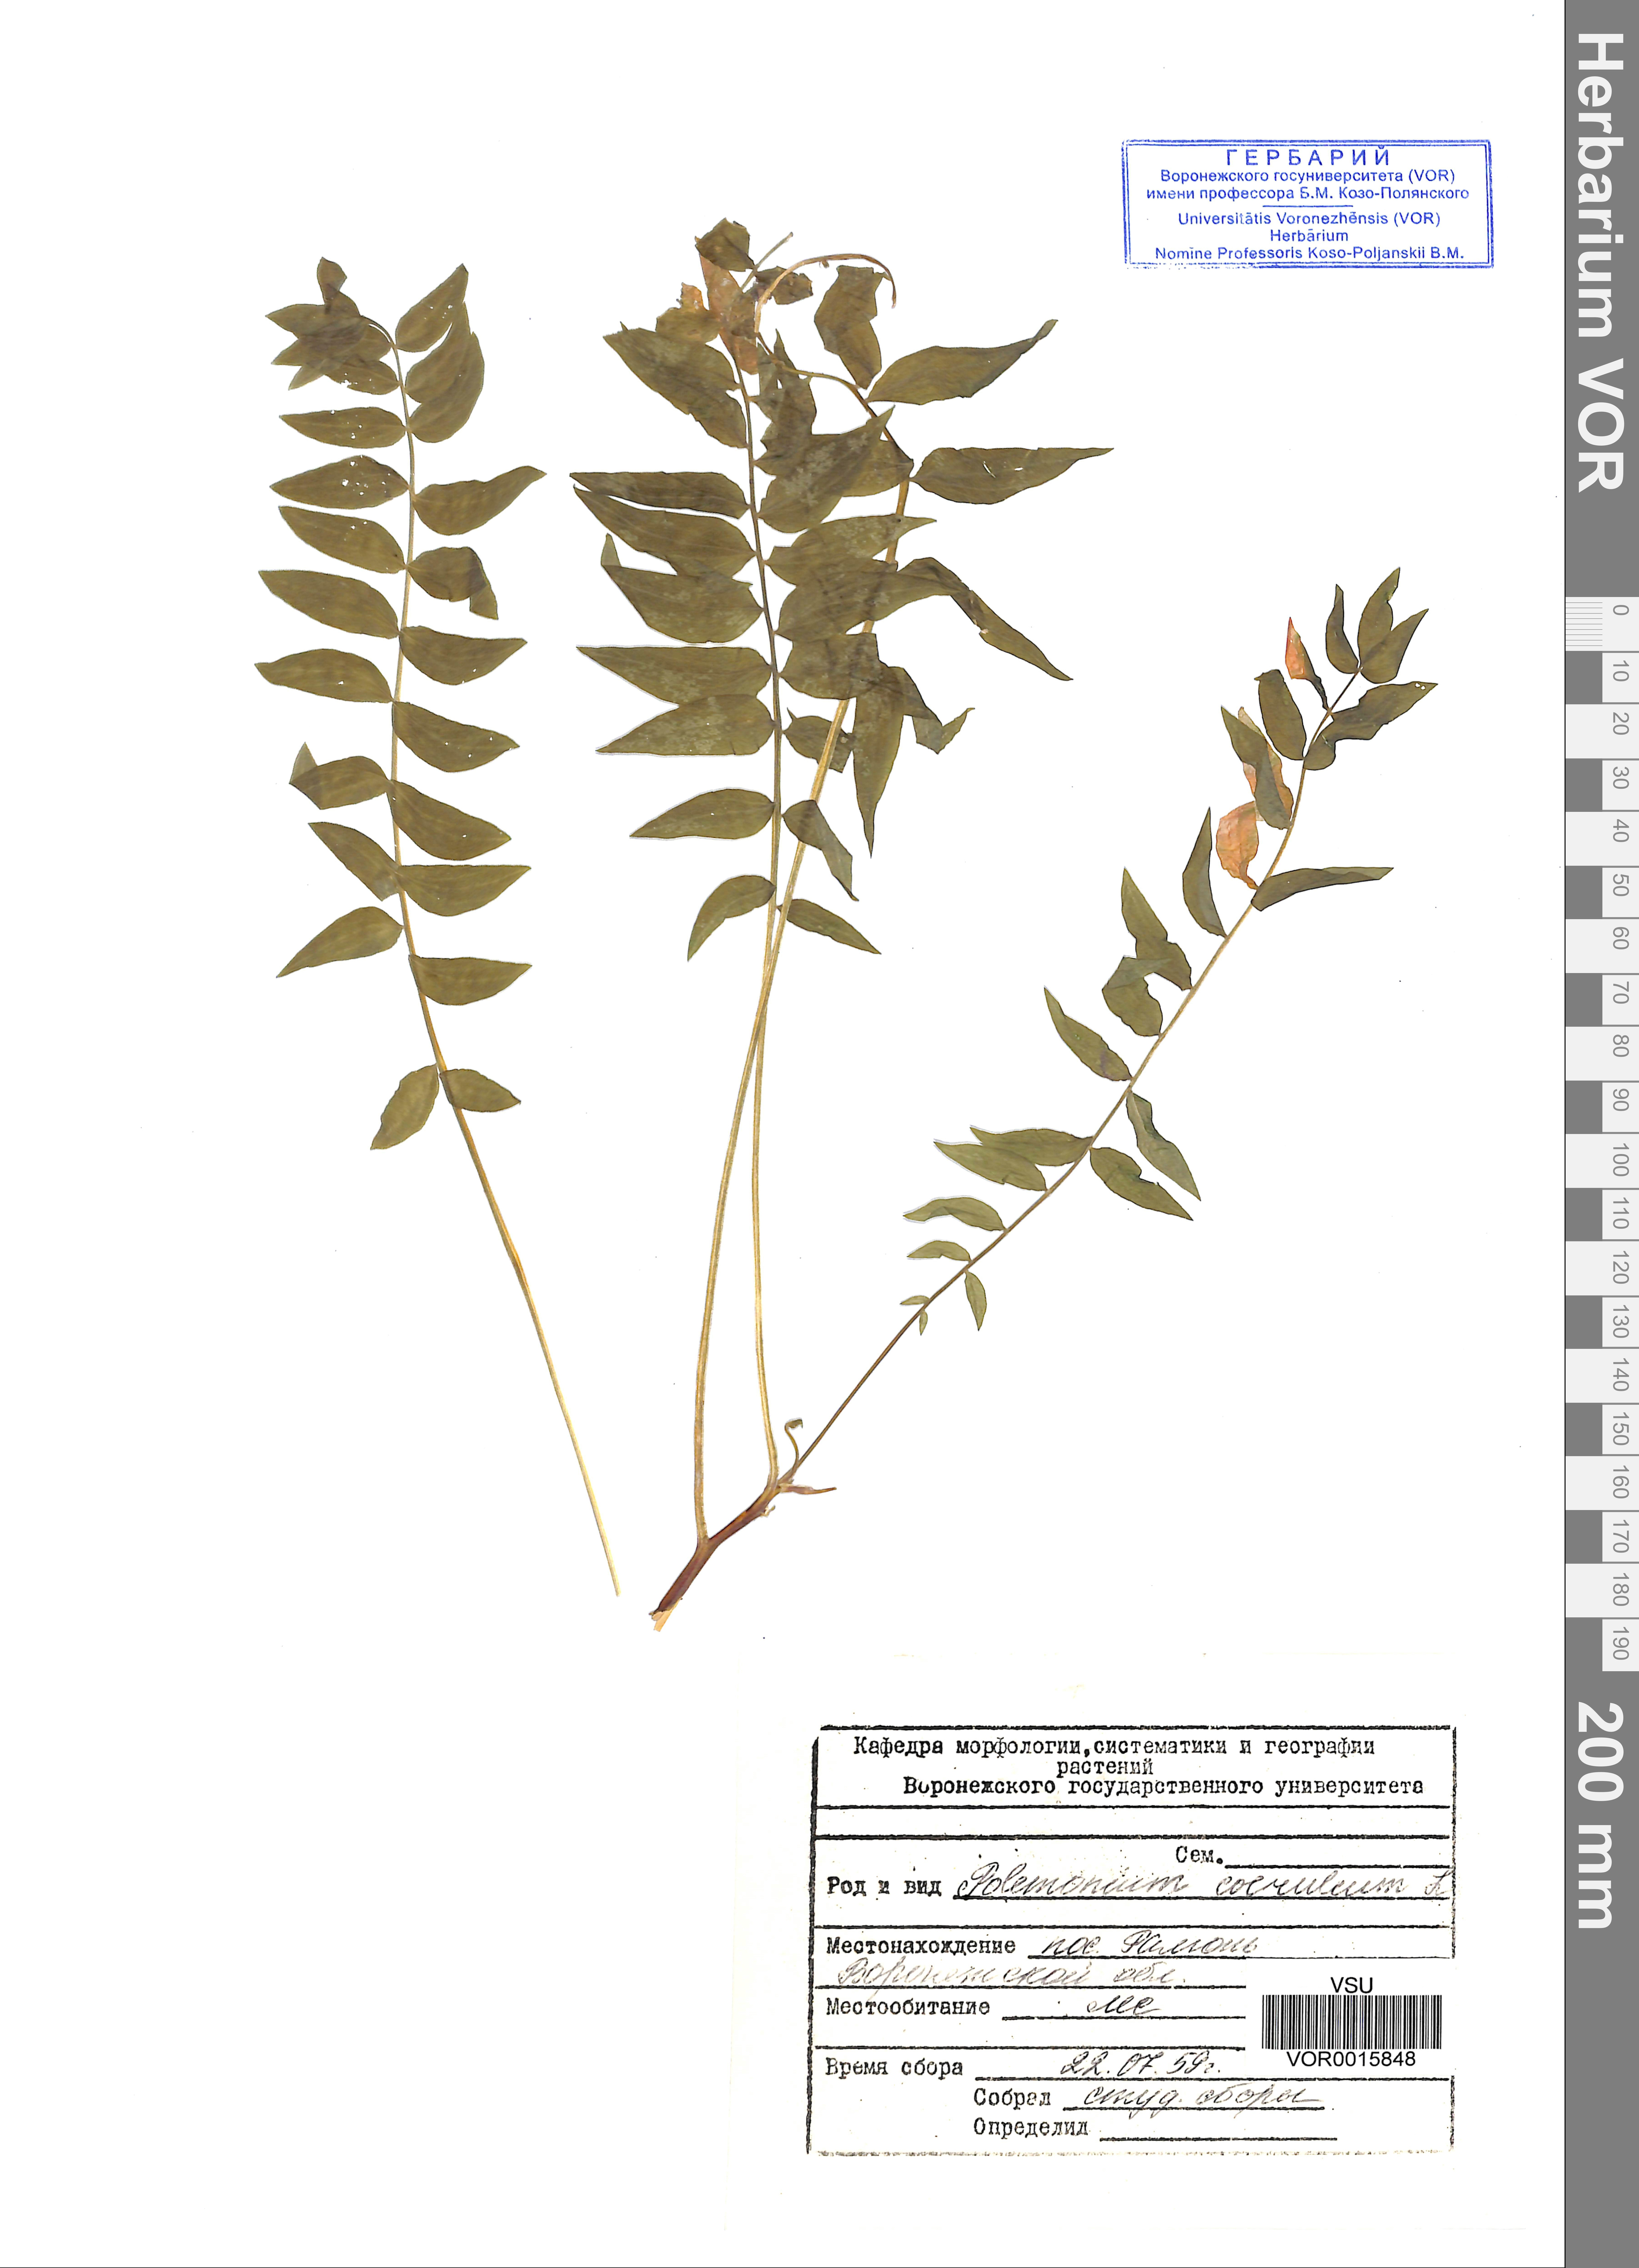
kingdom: Plantae
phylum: Tracheophyta
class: Magnoliopsida
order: Ericales
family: Polemoniaceae
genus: Polemonium
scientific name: Polemonium caeruleum
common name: Jacob's-ladder
